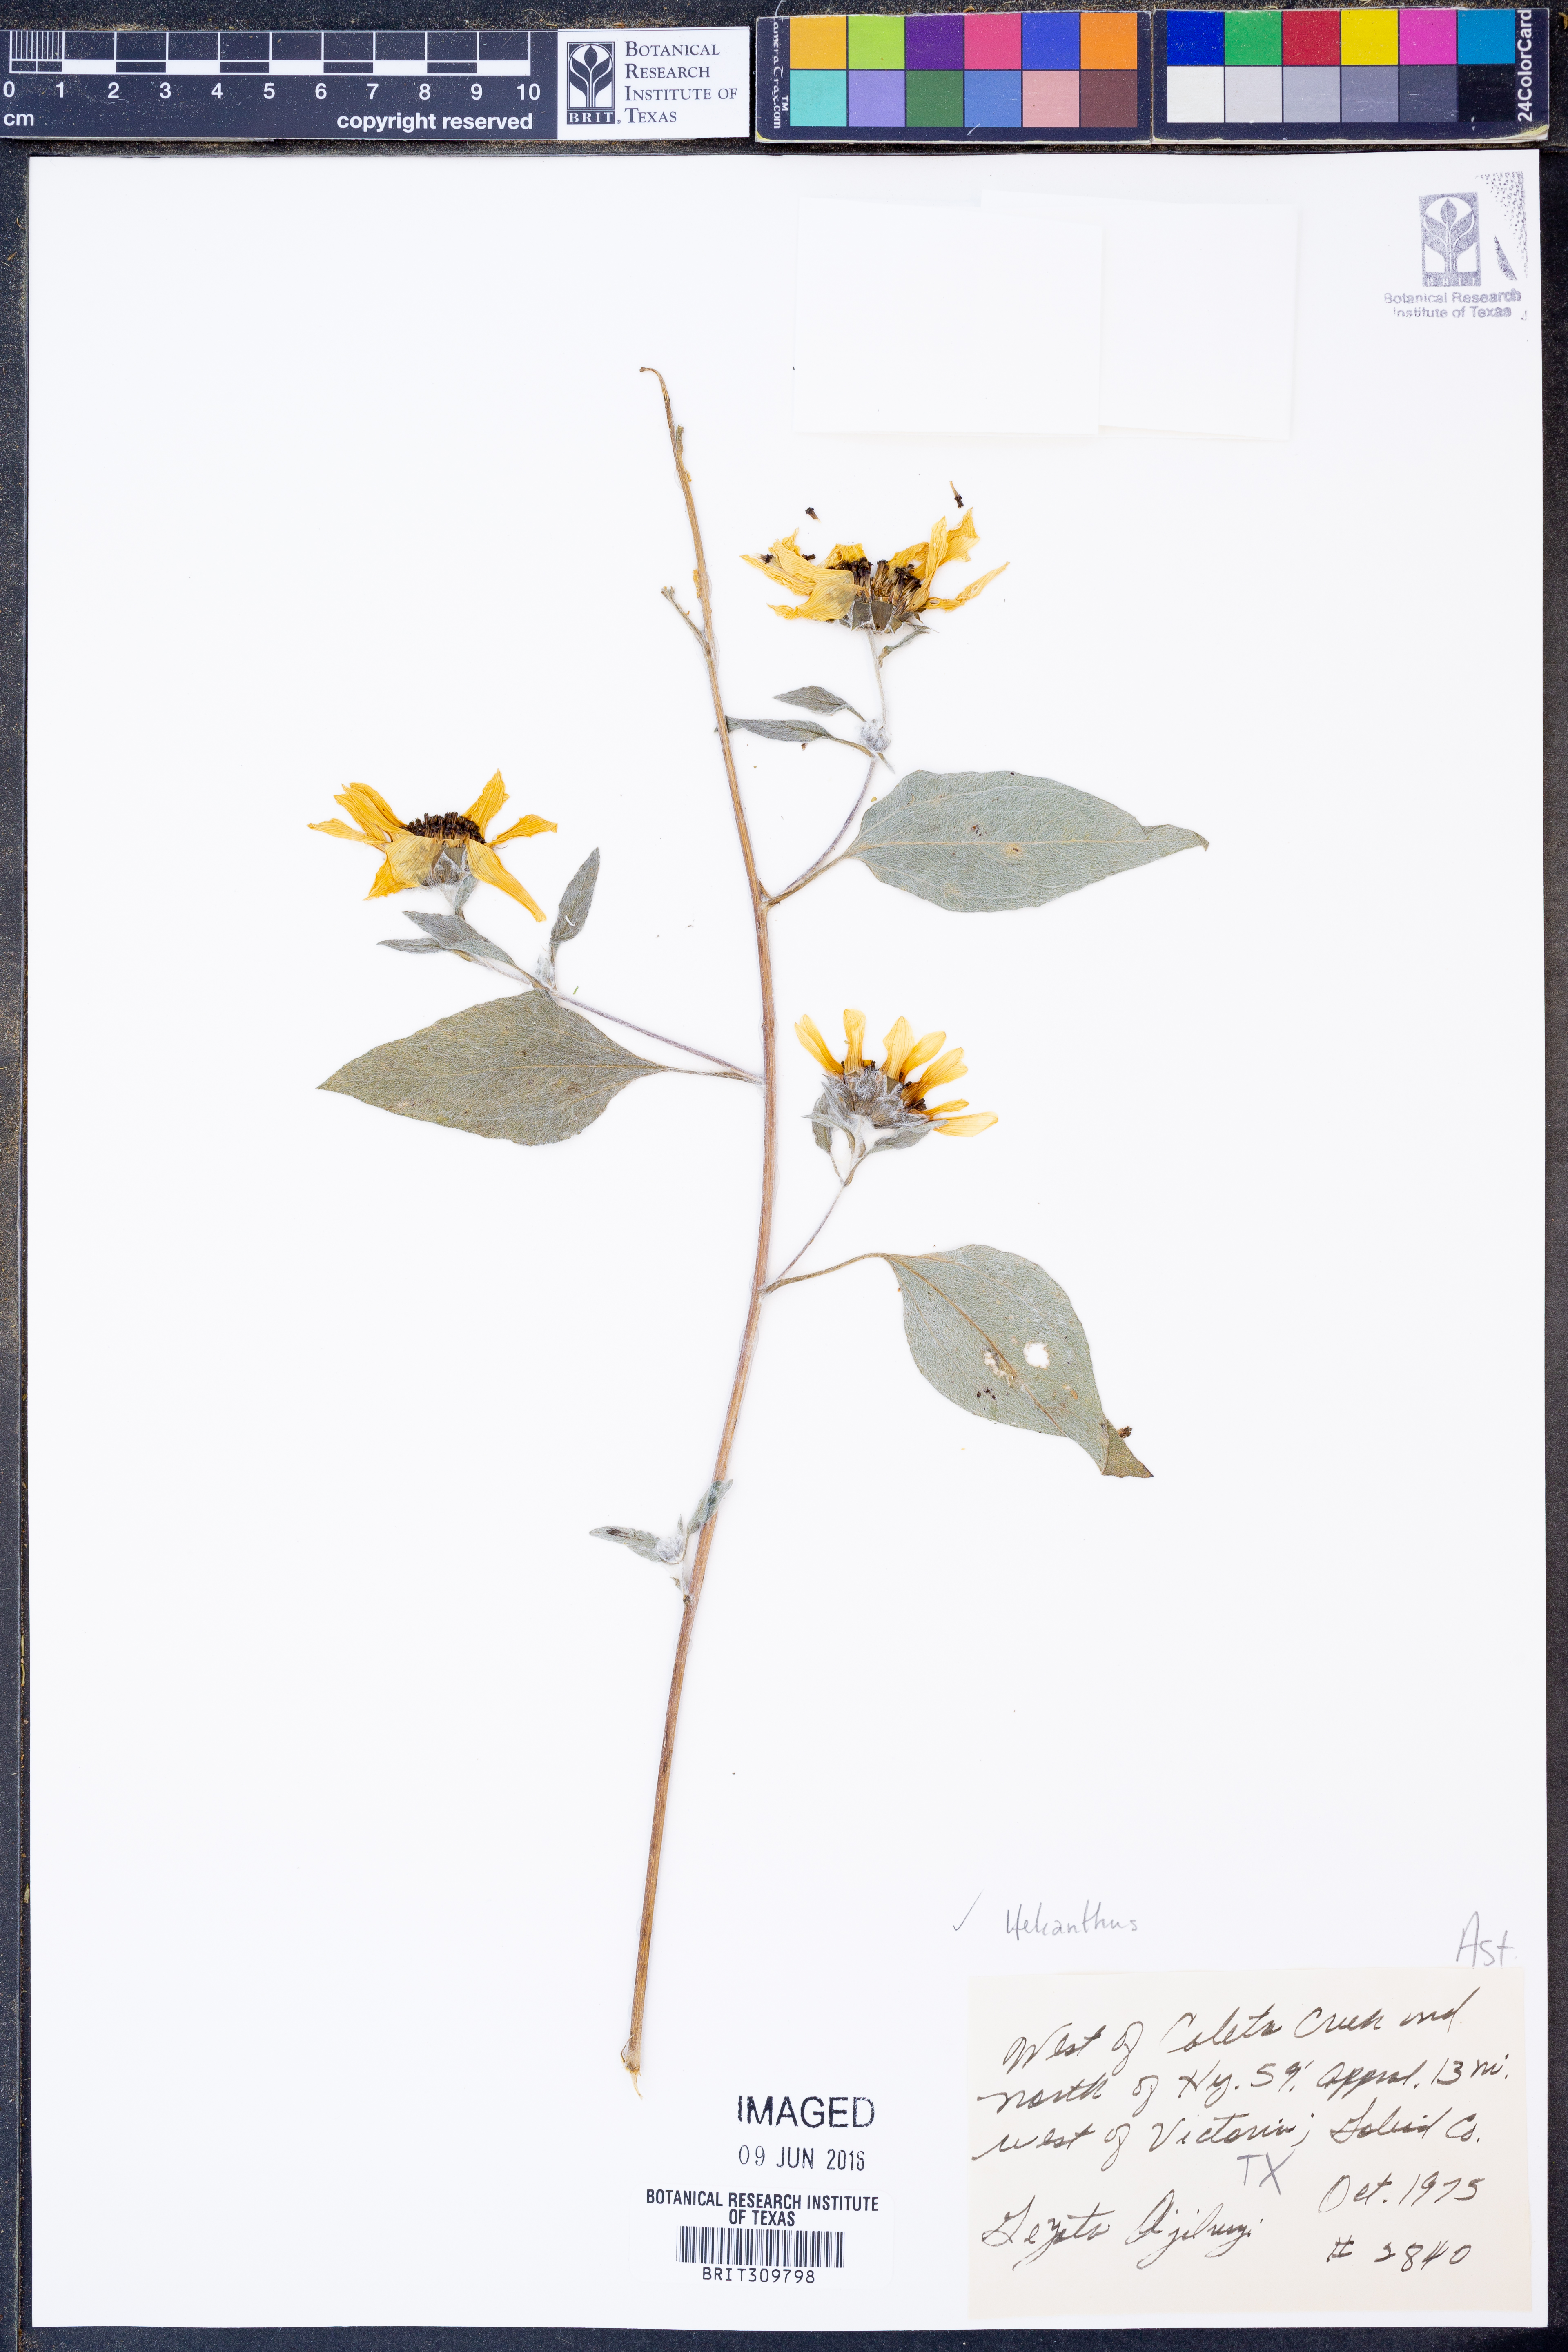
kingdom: Plantae
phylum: Tracheophyta
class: Magnoliopsida
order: Asterales
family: Asteraceae
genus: Helianthus
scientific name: Helianthus
